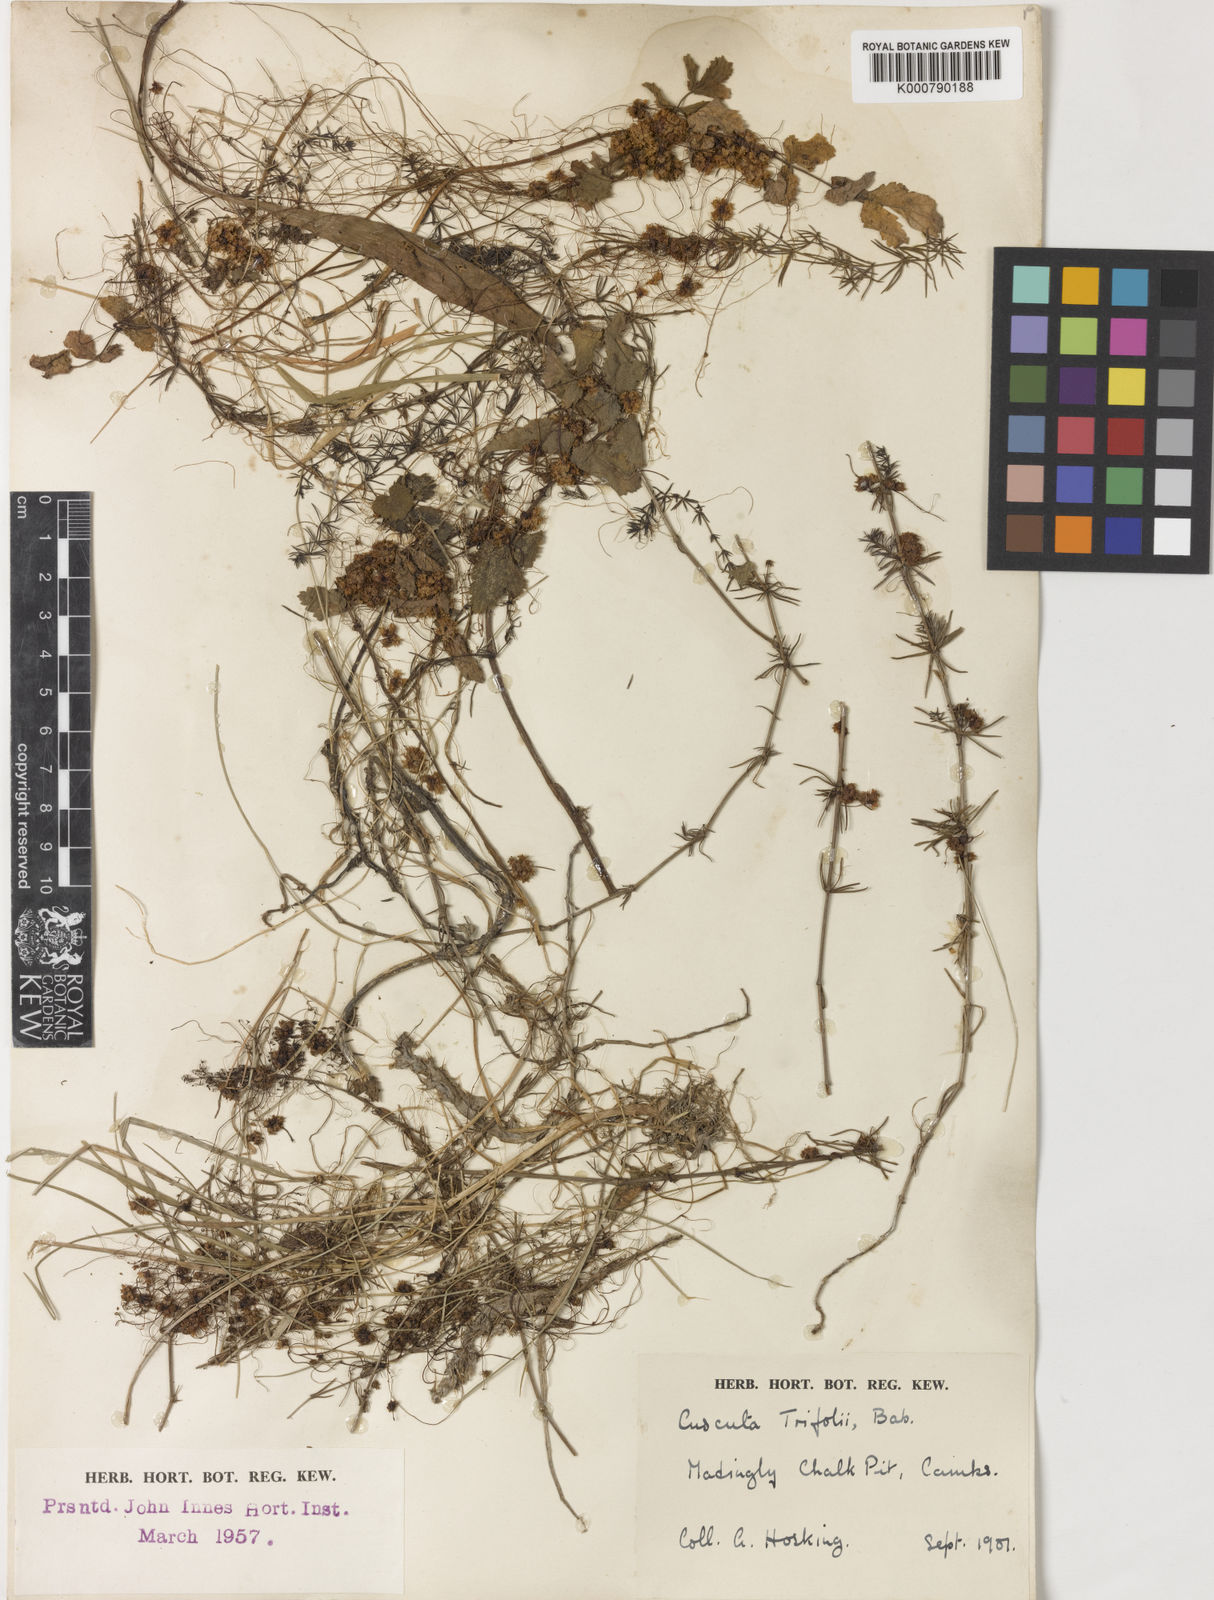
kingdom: Plantae
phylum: Tracheophyta
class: Magnoliopsida
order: Solanales
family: Convolvulaceae
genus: Cuscuta
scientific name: Cuscuta epithymum
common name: Clover dodder
